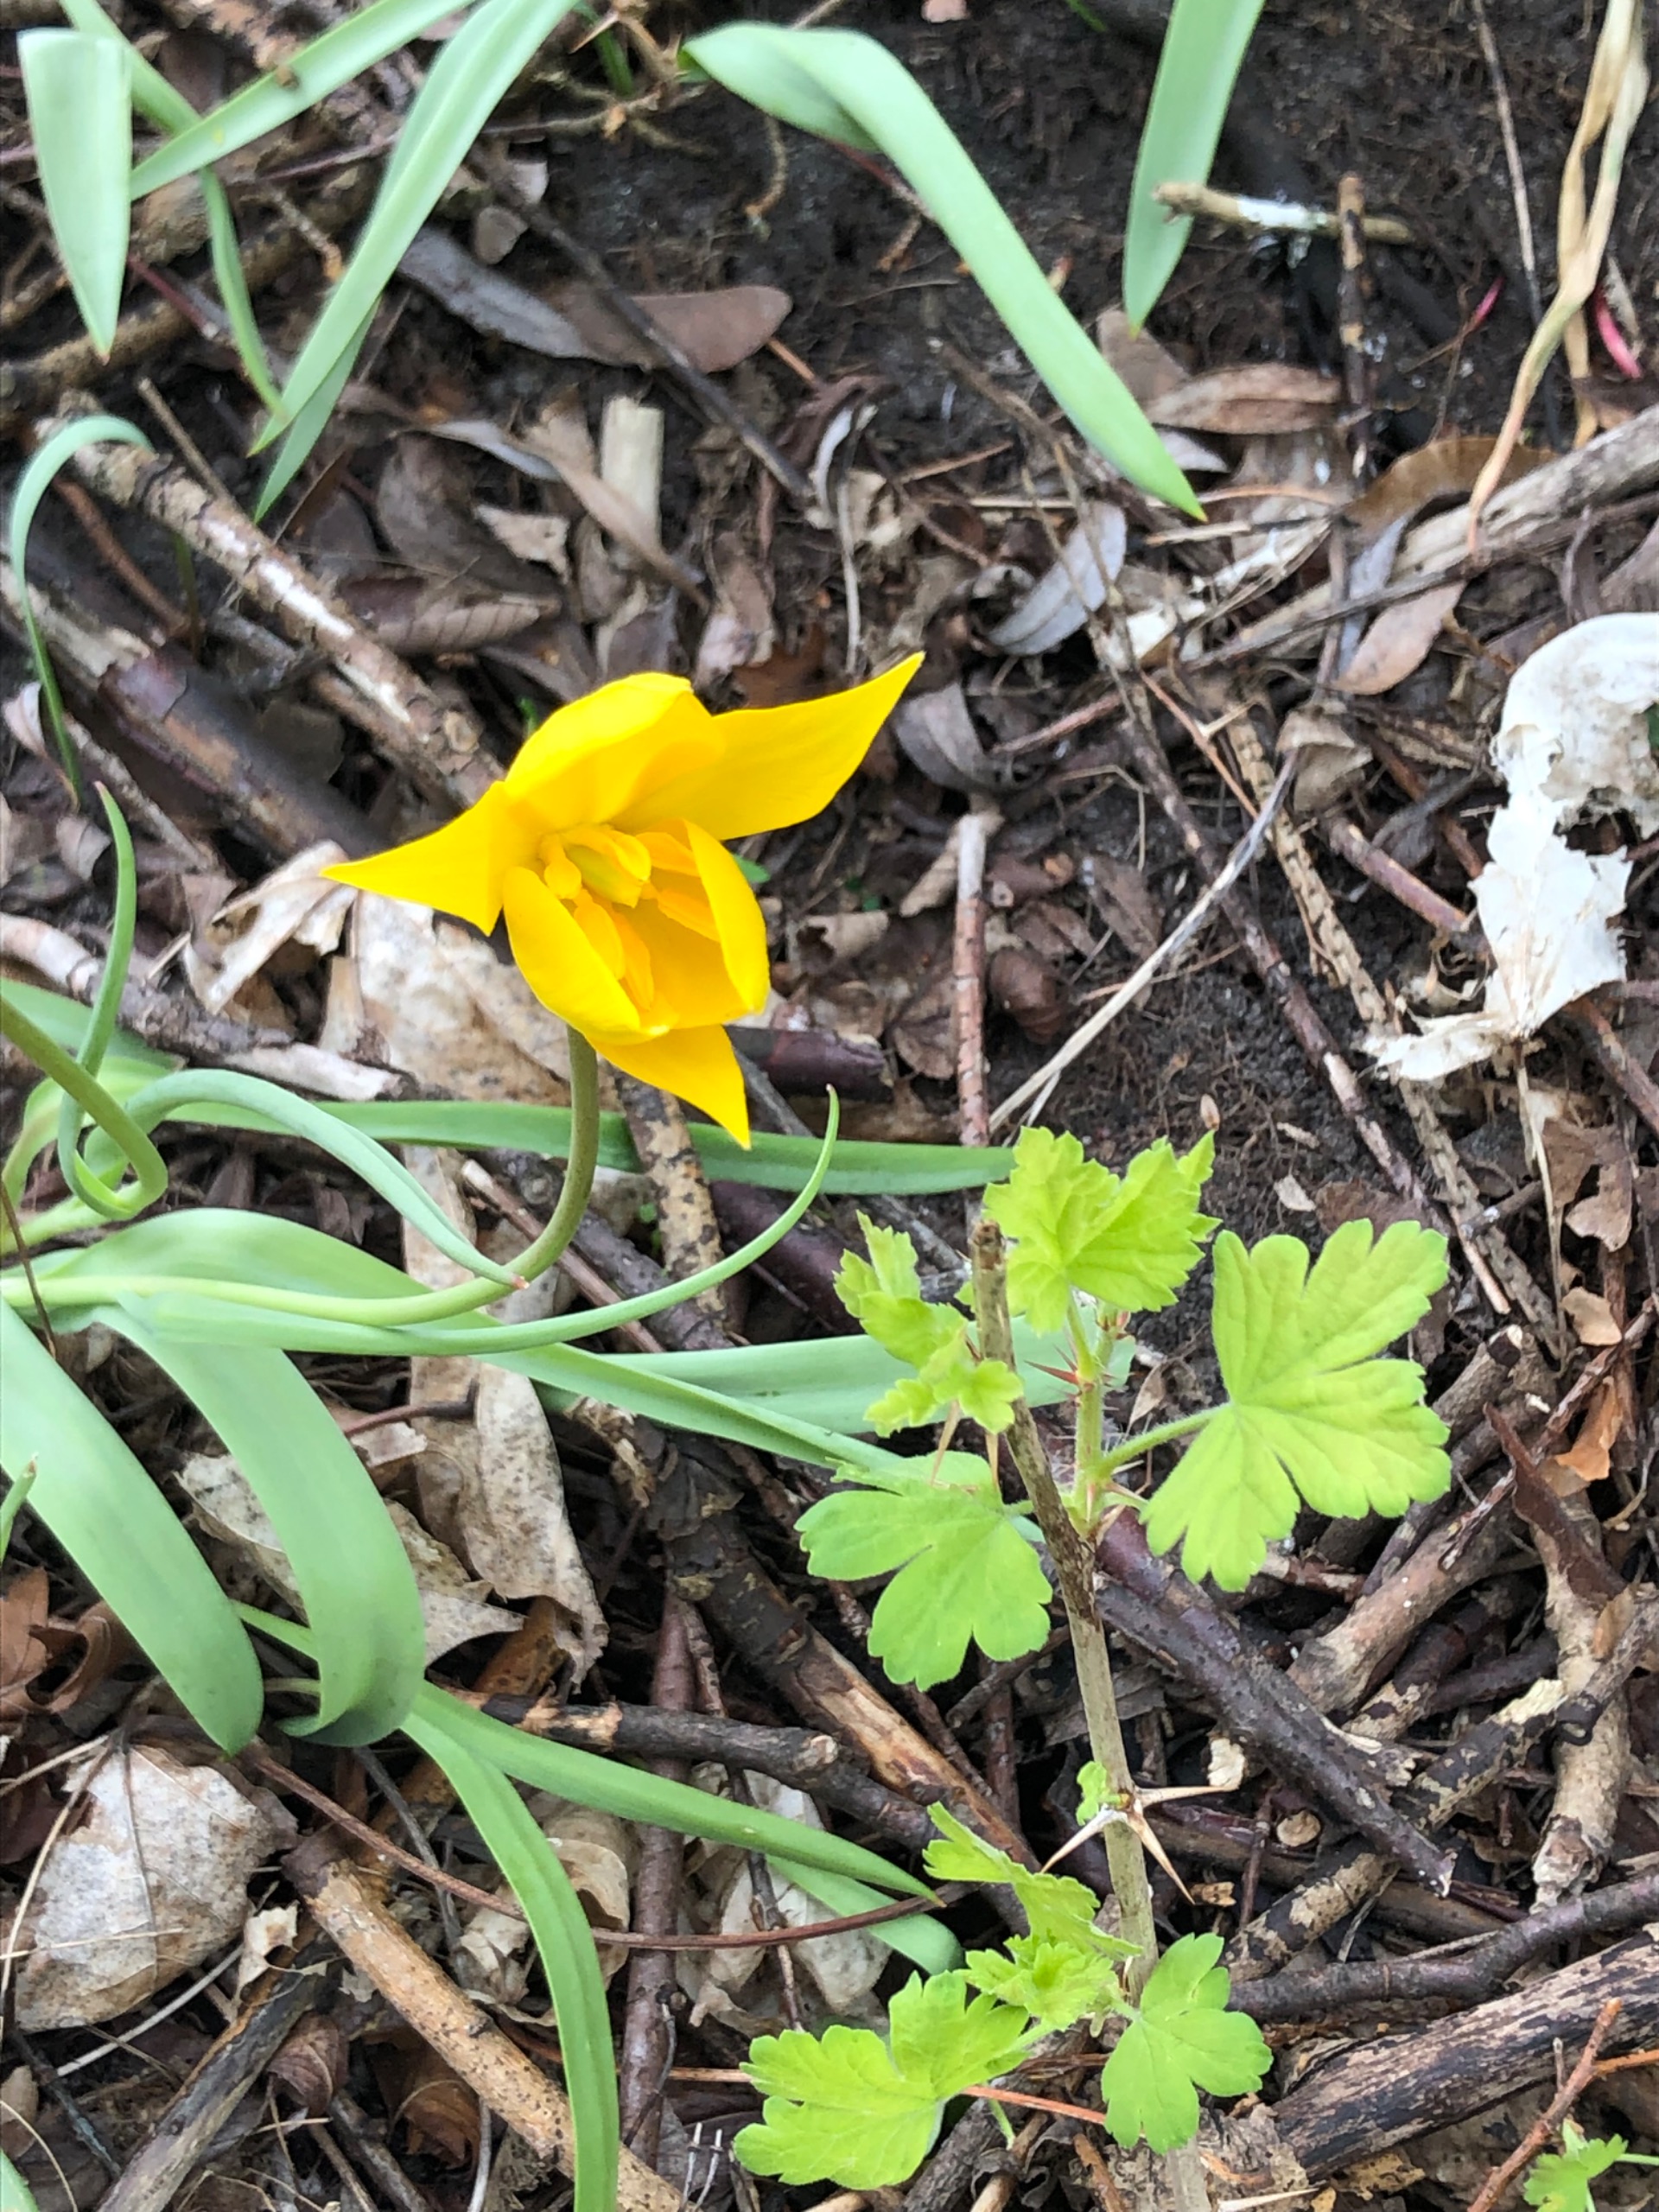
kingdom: Plantae
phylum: Tracheophyta
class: Liliopsida
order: Liliales
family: Liliaceae
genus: Tulipa
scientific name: Tulipa sylvestris
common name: Vild tulipan
